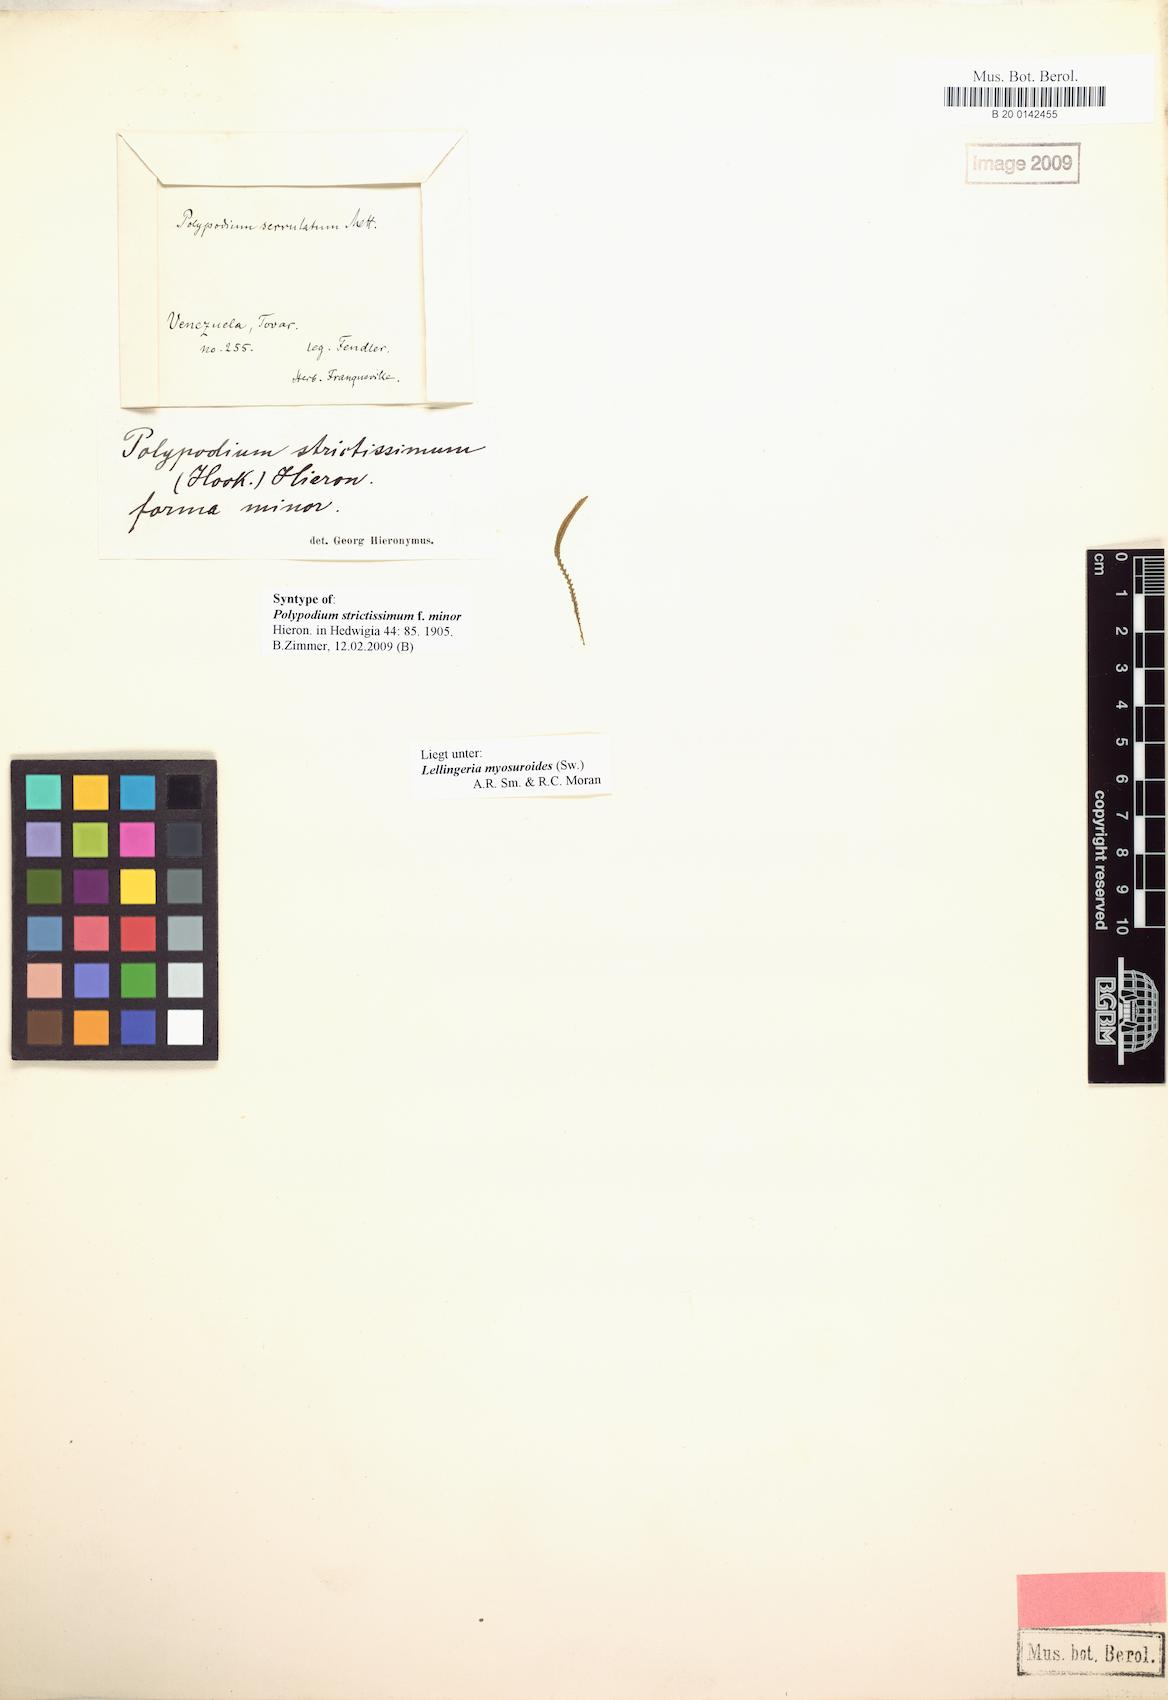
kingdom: Plantae
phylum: Tracheophyta
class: Polypodiopsida
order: Polypodiales
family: Polypodiaceae
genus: Stenogrammitis
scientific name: Stenogrammitis jamesonii
